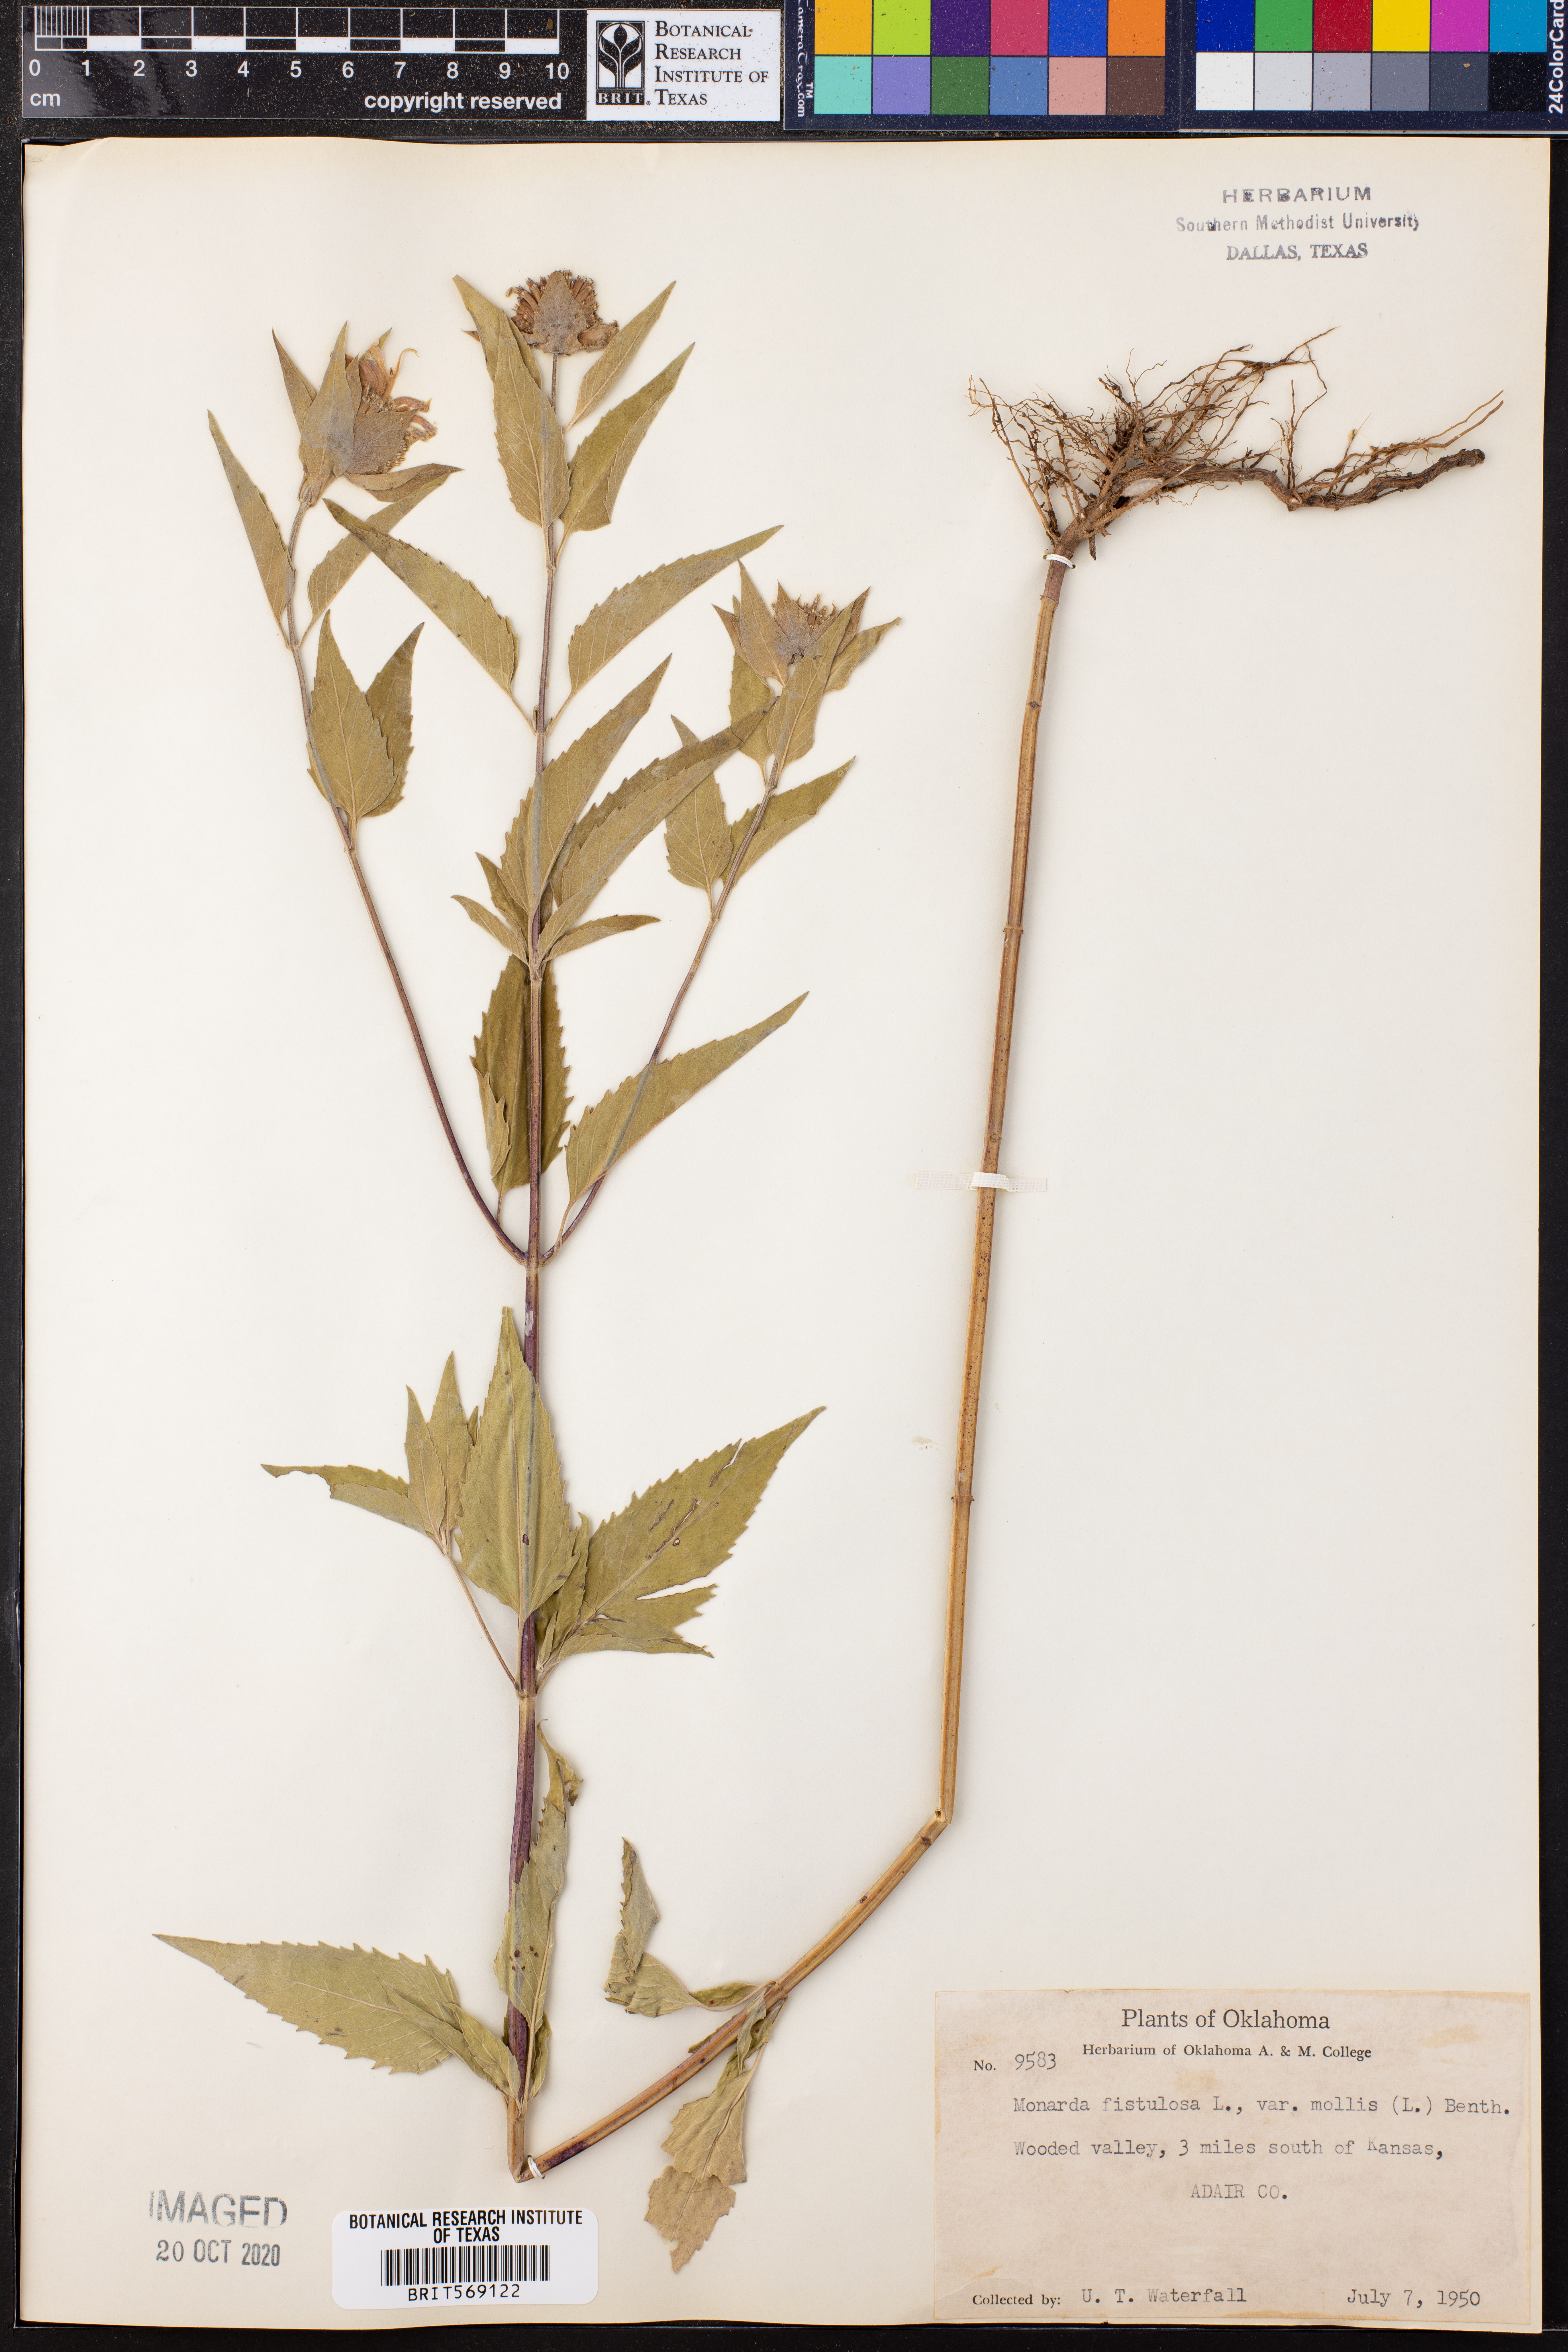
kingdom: Plantae
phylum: Tracheophyta
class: Magnoliopsida
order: Lamiales
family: Lamiaceae
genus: Monarda
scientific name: Monarda fistulosa
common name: Purple beebalm
